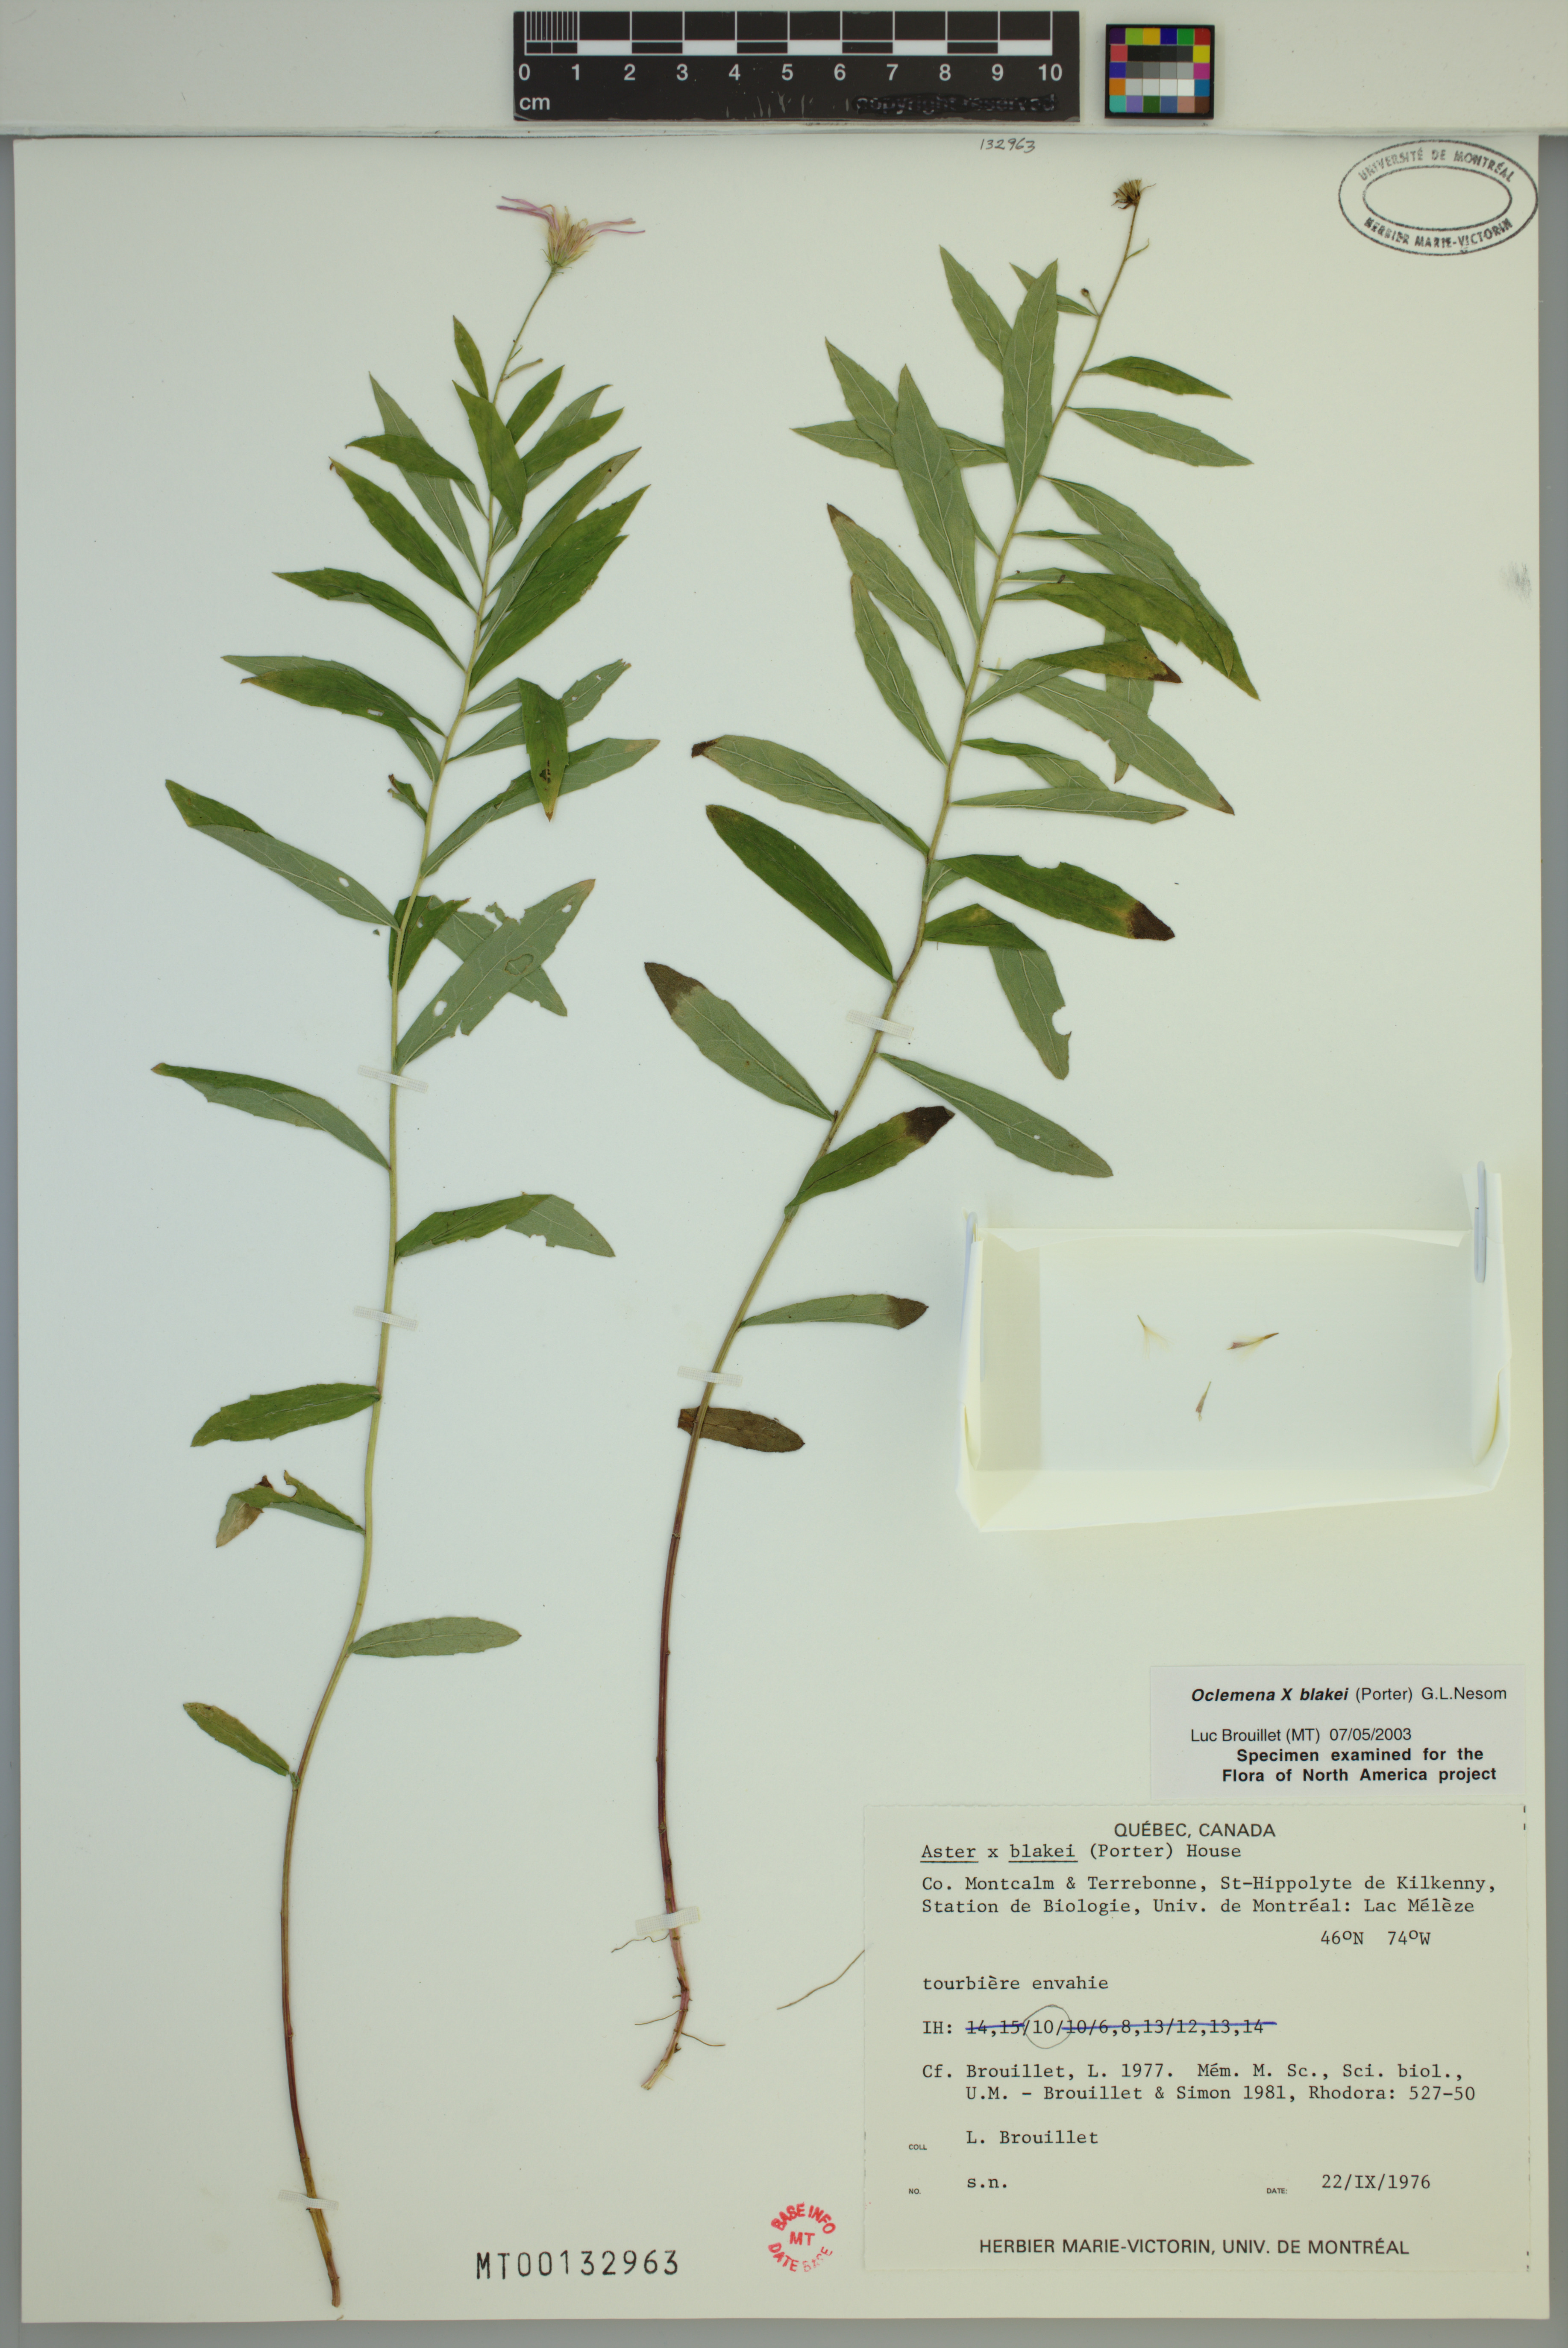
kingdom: Plantae
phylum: Tracheophyta
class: Magnoliopsida
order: Asterales
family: Asteraceae
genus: Oclemena
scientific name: Oclemena blakei
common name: Blake's aster
